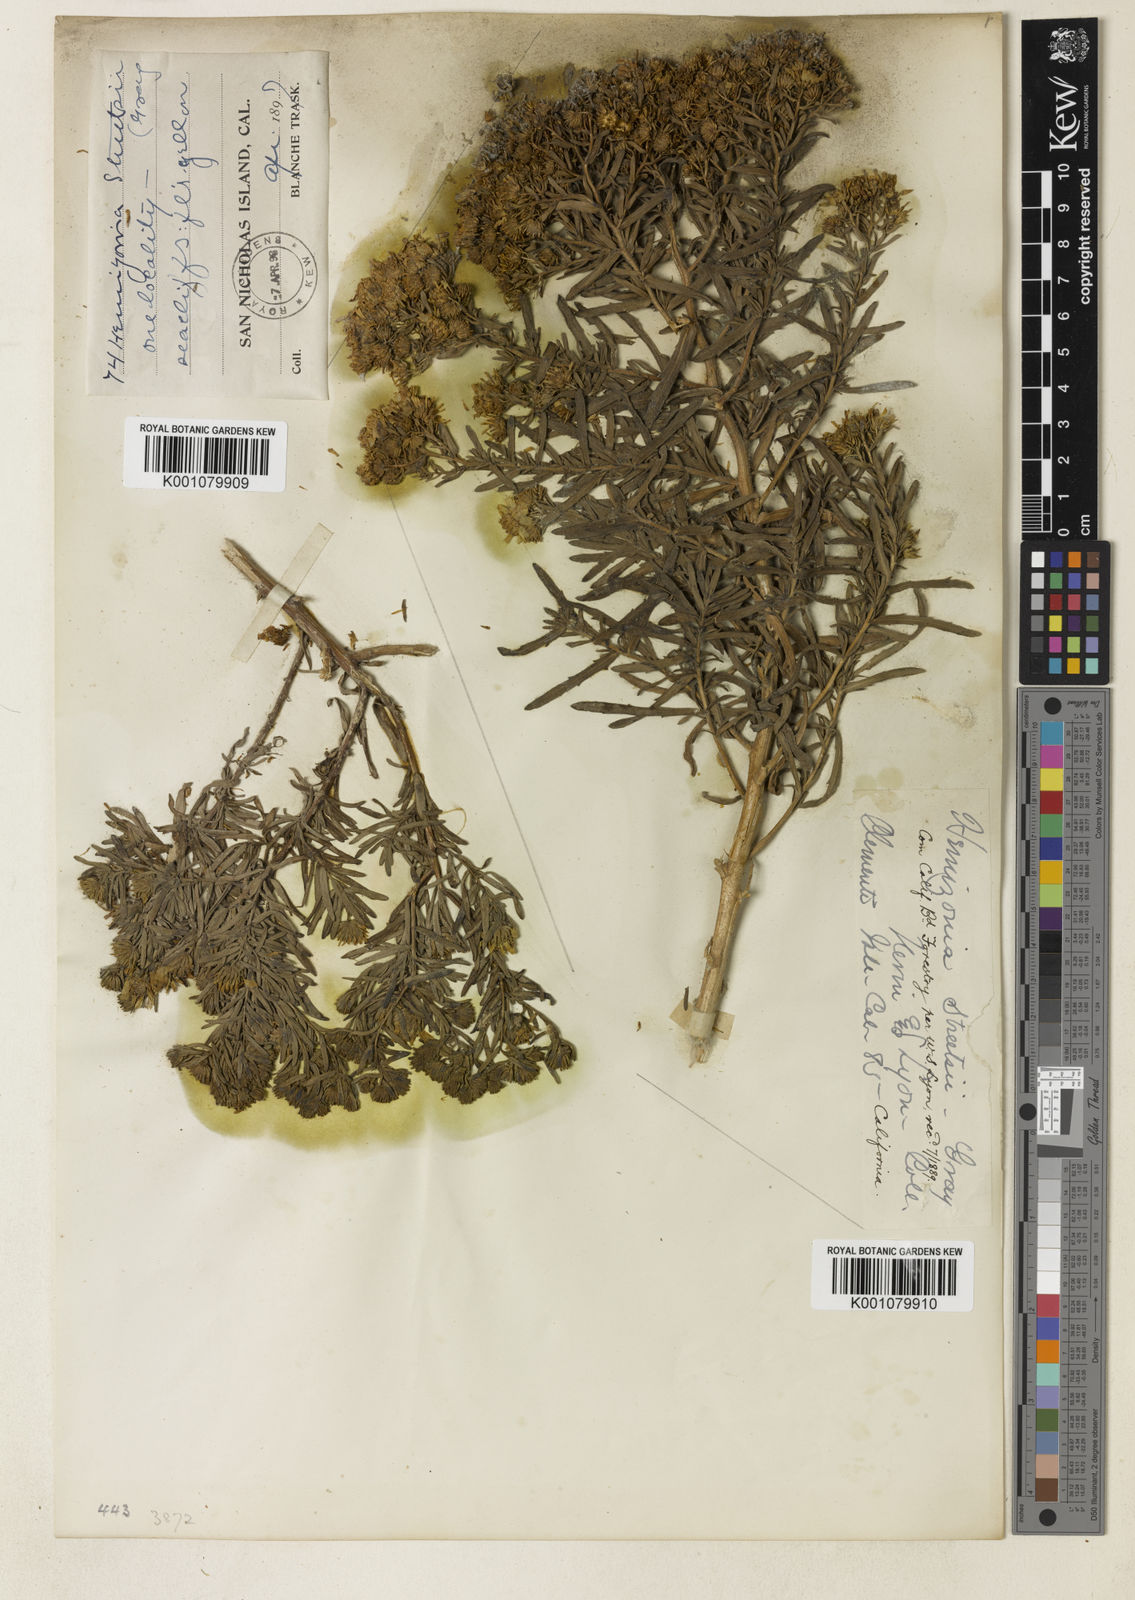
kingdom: Plantae
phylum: Tracheophyta
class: Magnoliopsida
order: Asterales
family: Asteraceae
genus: Deinandra
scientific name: Deinandra streetsii
